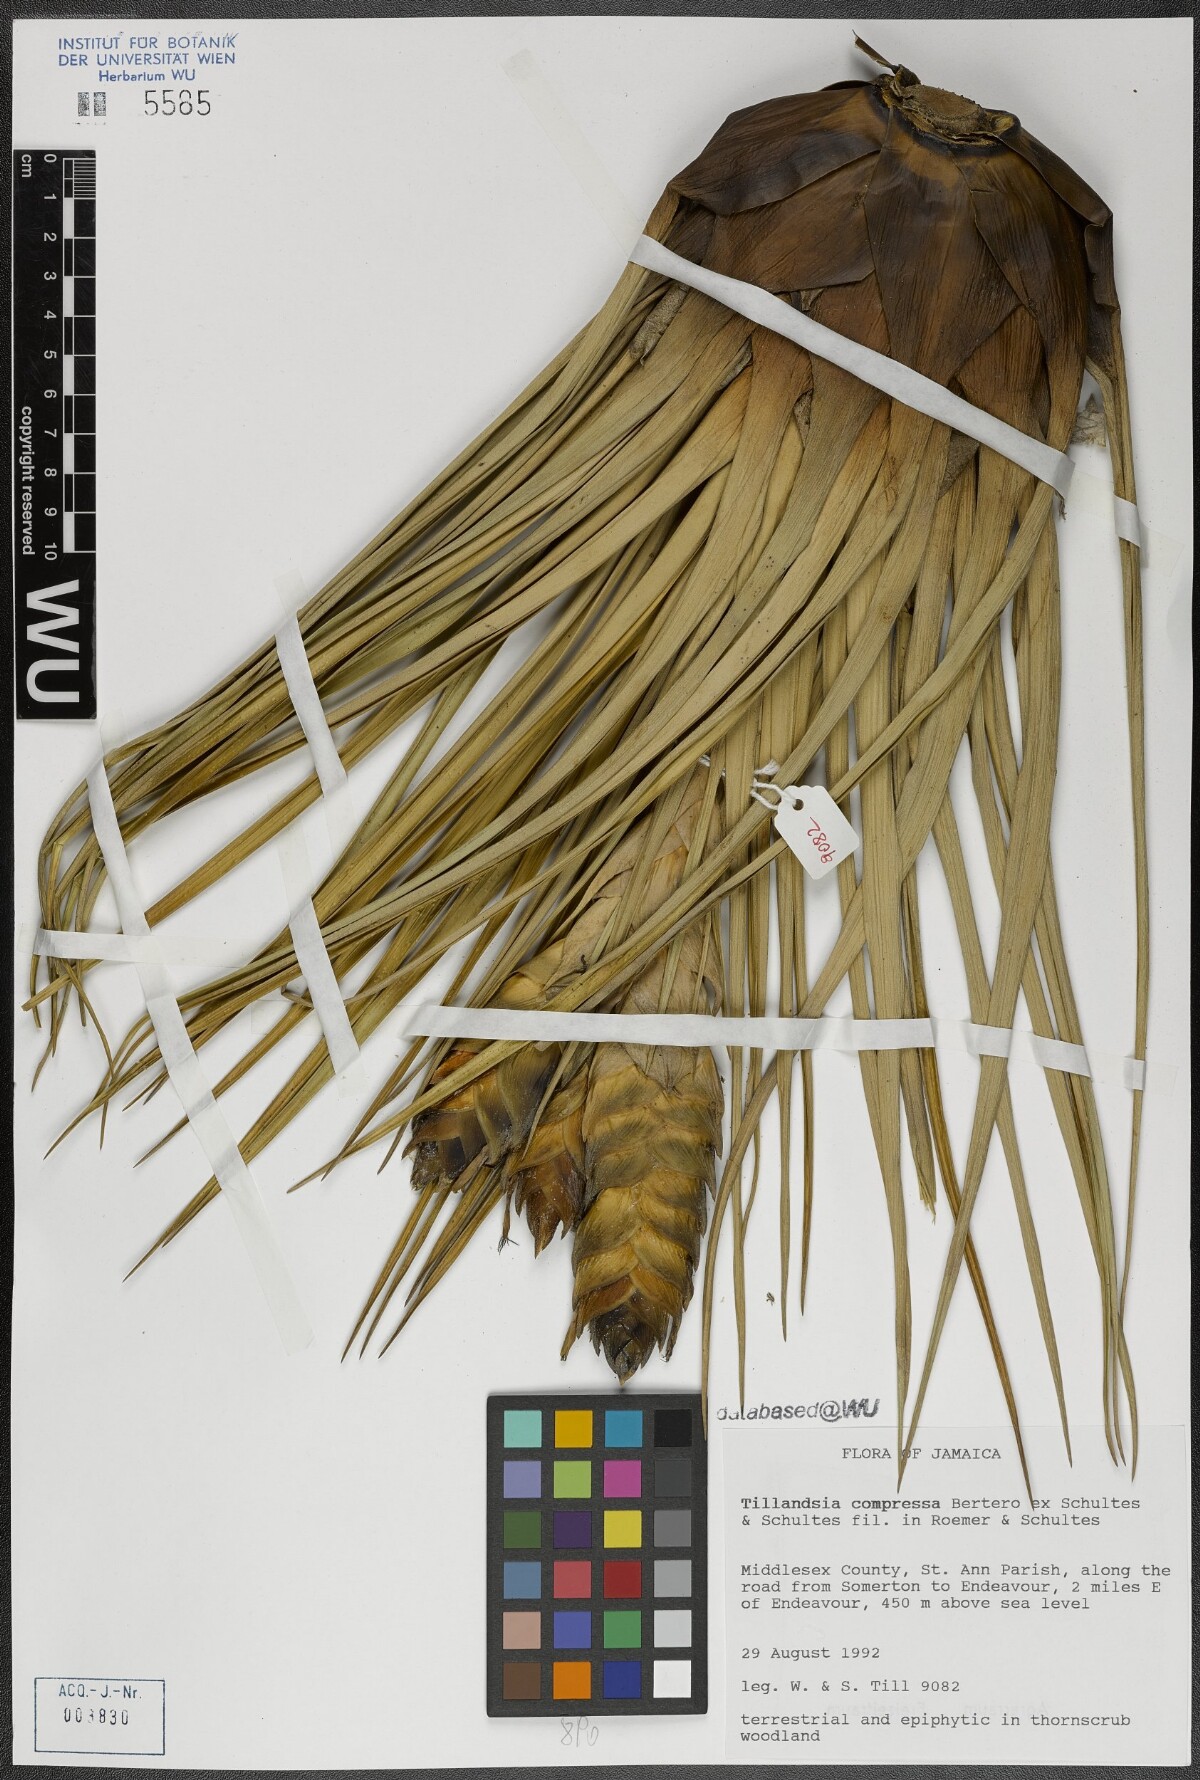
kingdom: Plantae
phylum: Tracheophyta
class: Liliopsida
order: Poales
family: Bromeliaceae
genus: Tillandsia
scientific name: Tillandsia compressa
